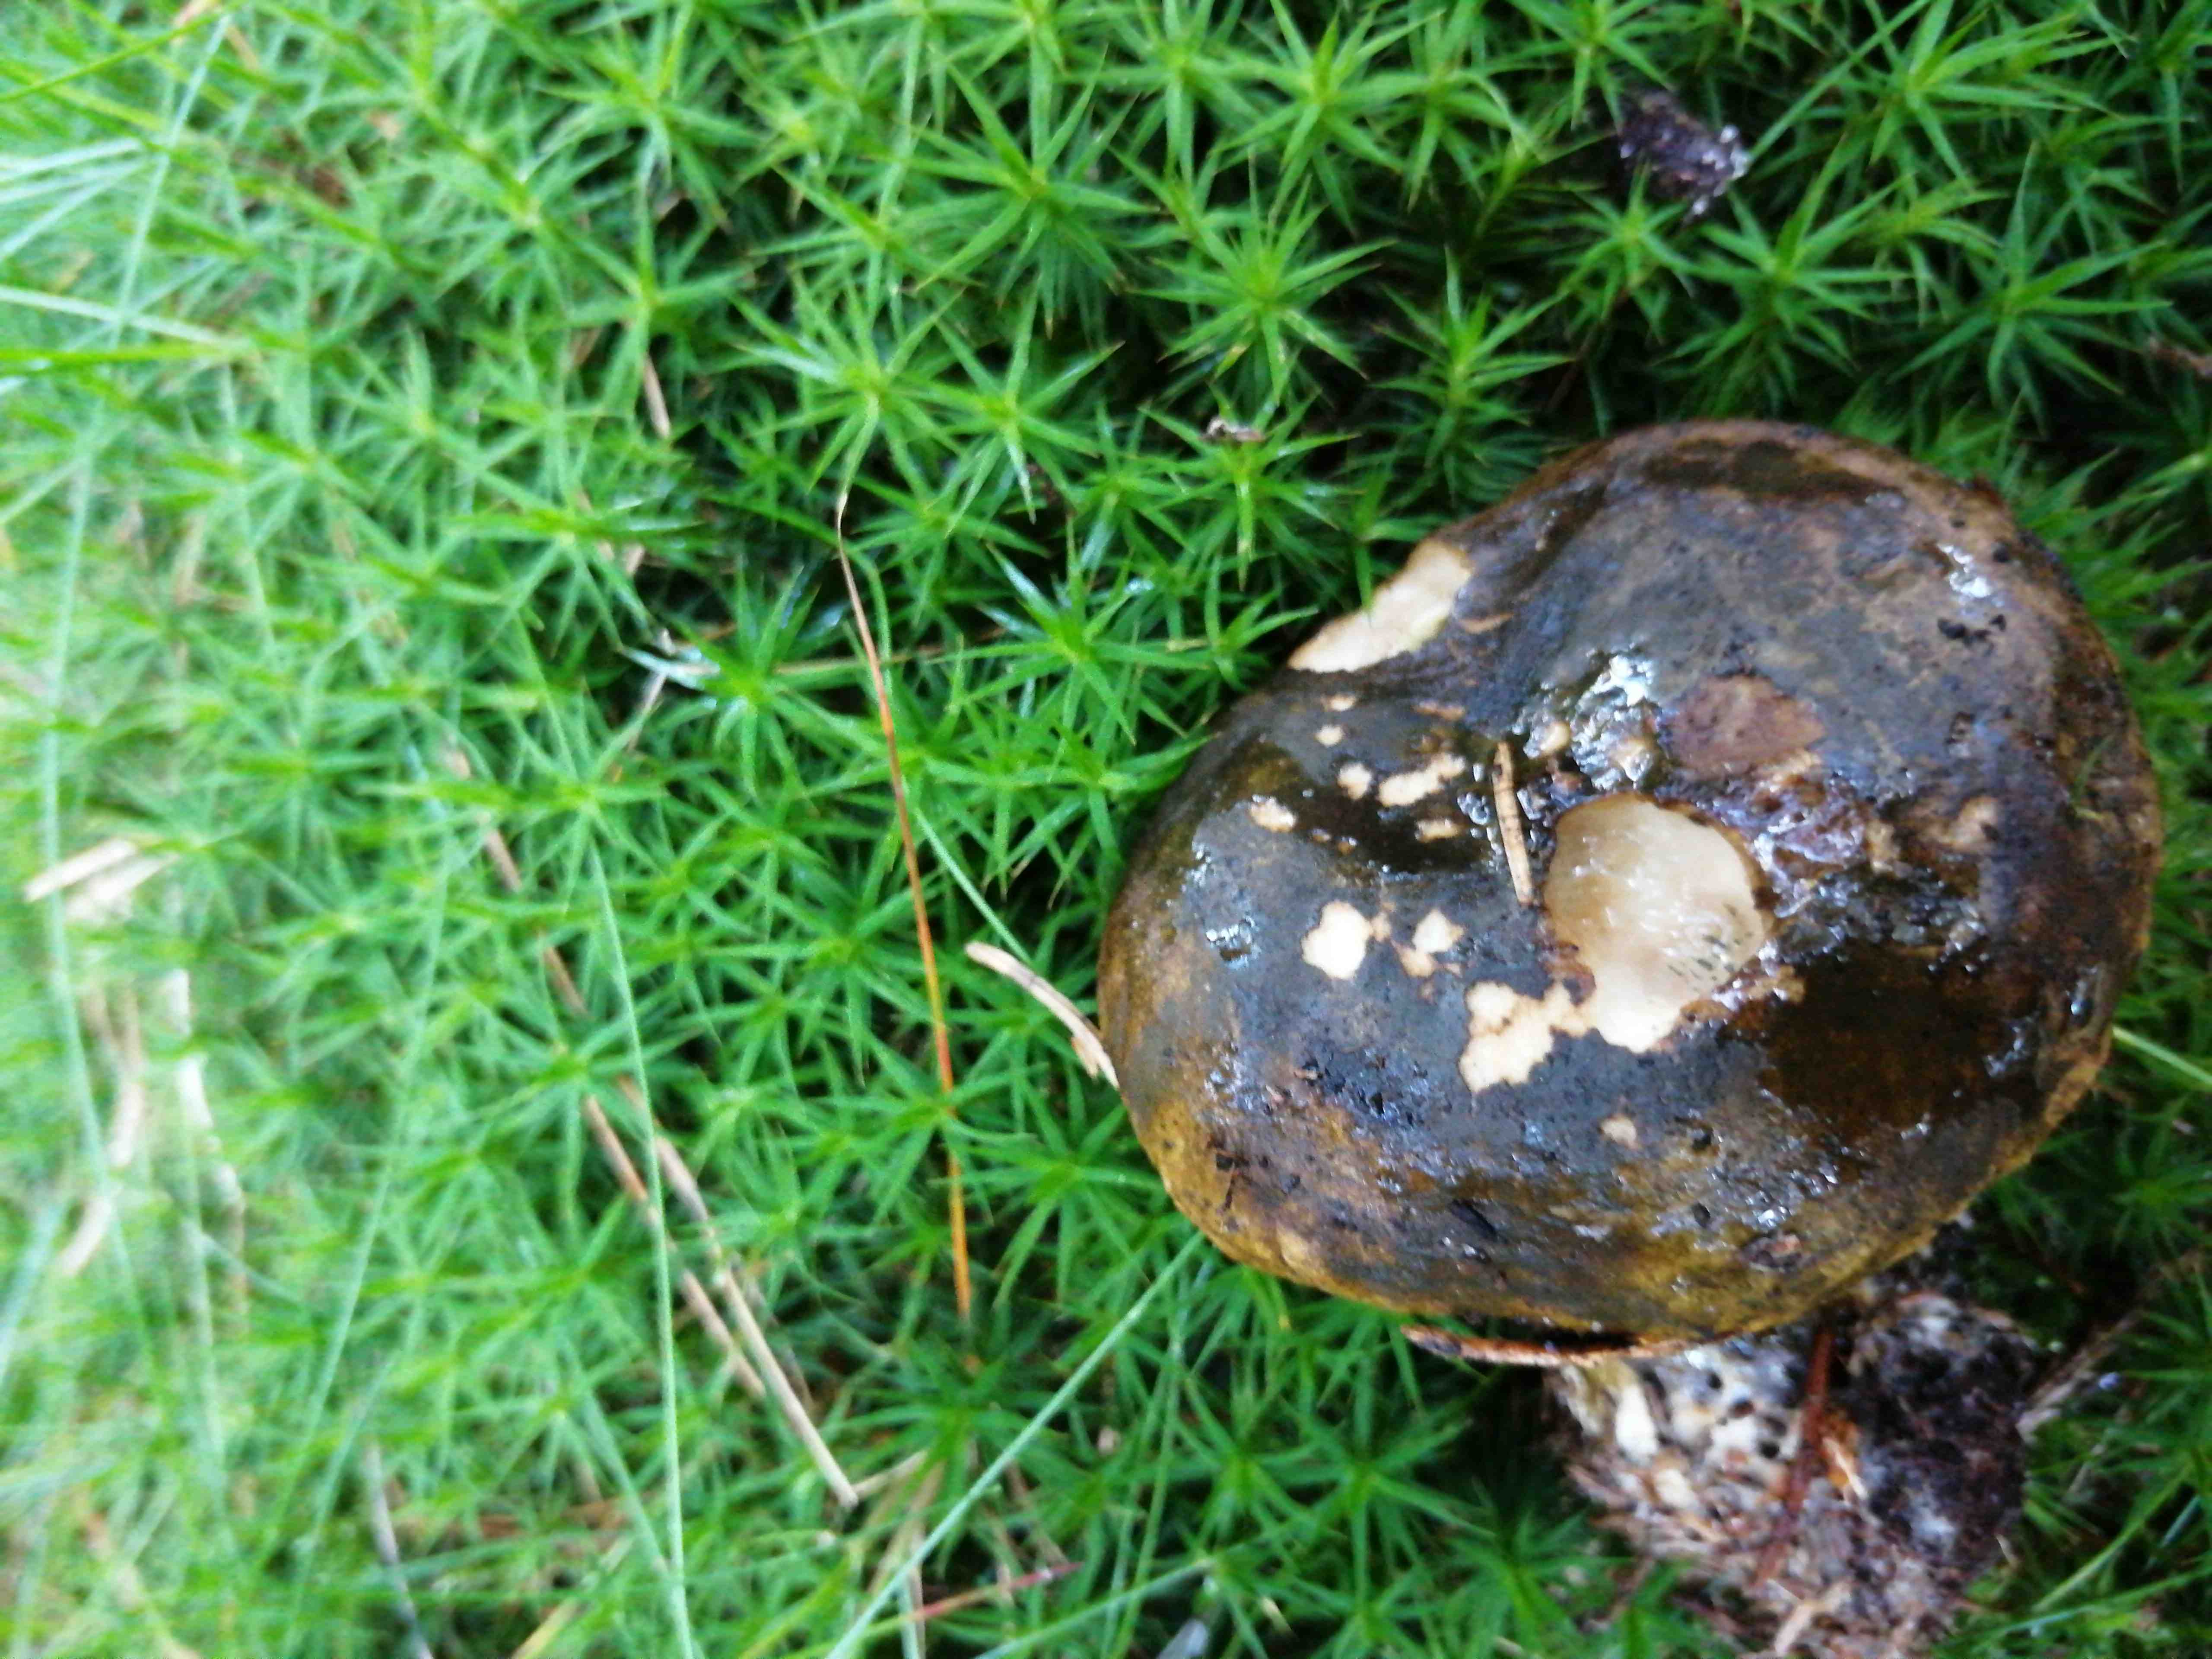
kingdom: Fungi
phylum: Basidiomycota
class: Agaricomycetes
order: Russulales
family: Russulaceae
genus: Lactarius
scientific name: Lactarius necator
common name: manddraber-mælkehat
